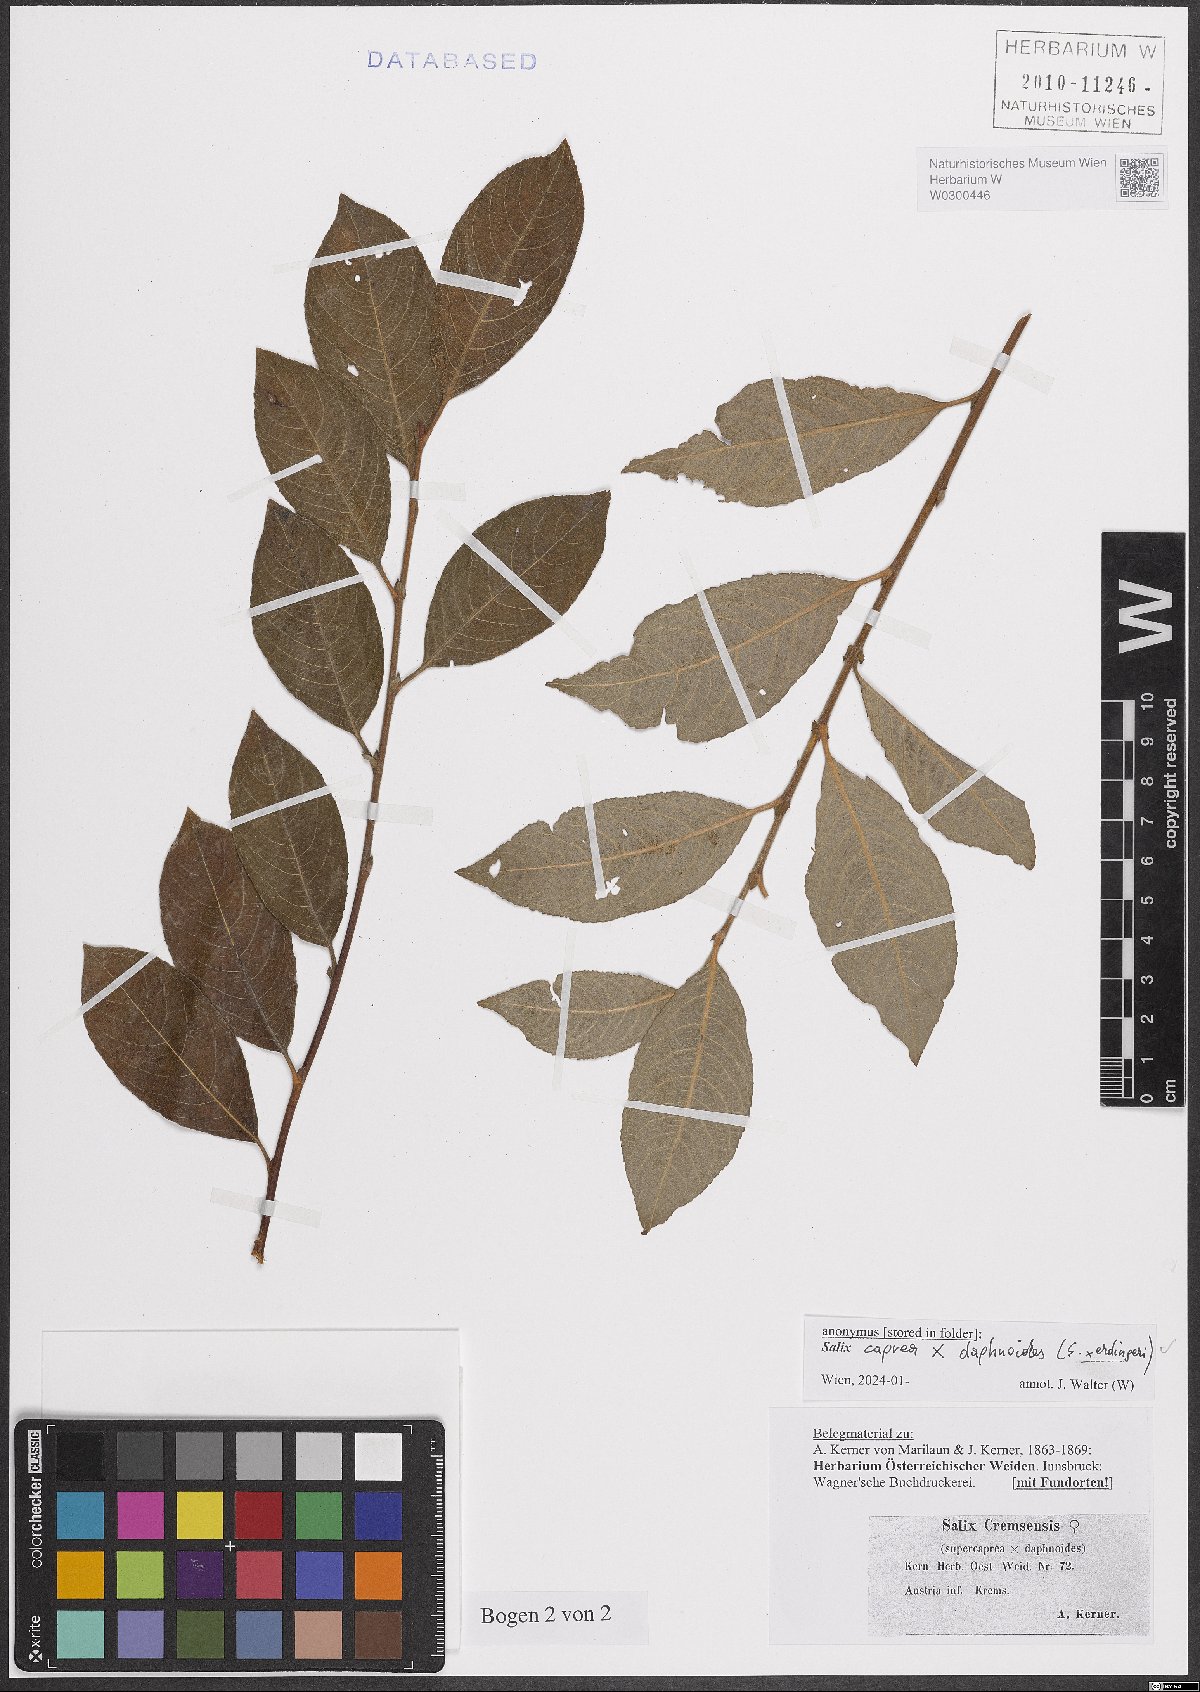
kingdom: Plantae
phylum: Tracheophyta
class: Magnoliopsida
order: Malpighiales
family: Salicaceae
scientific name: Salicaceae
